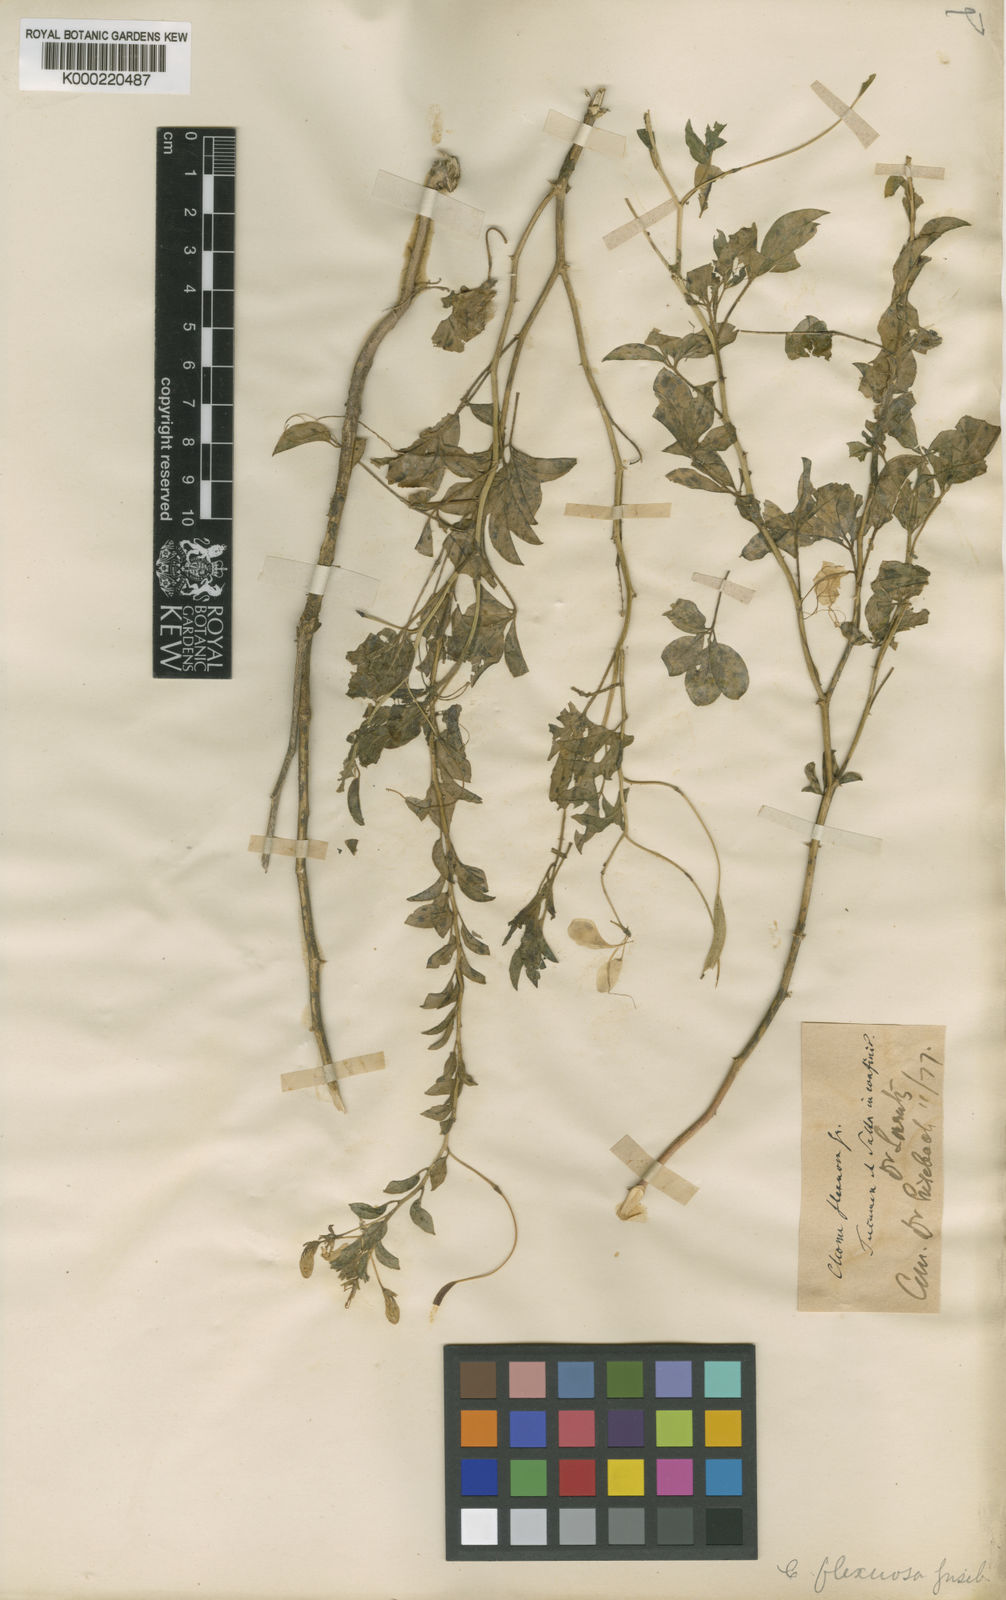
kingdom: Plantae
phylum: Tracheophyta
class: Magnoliopsida
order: Brassicales
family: Cleomaceae
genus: Tarenaya
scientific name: Tarenaya tucumanensis
